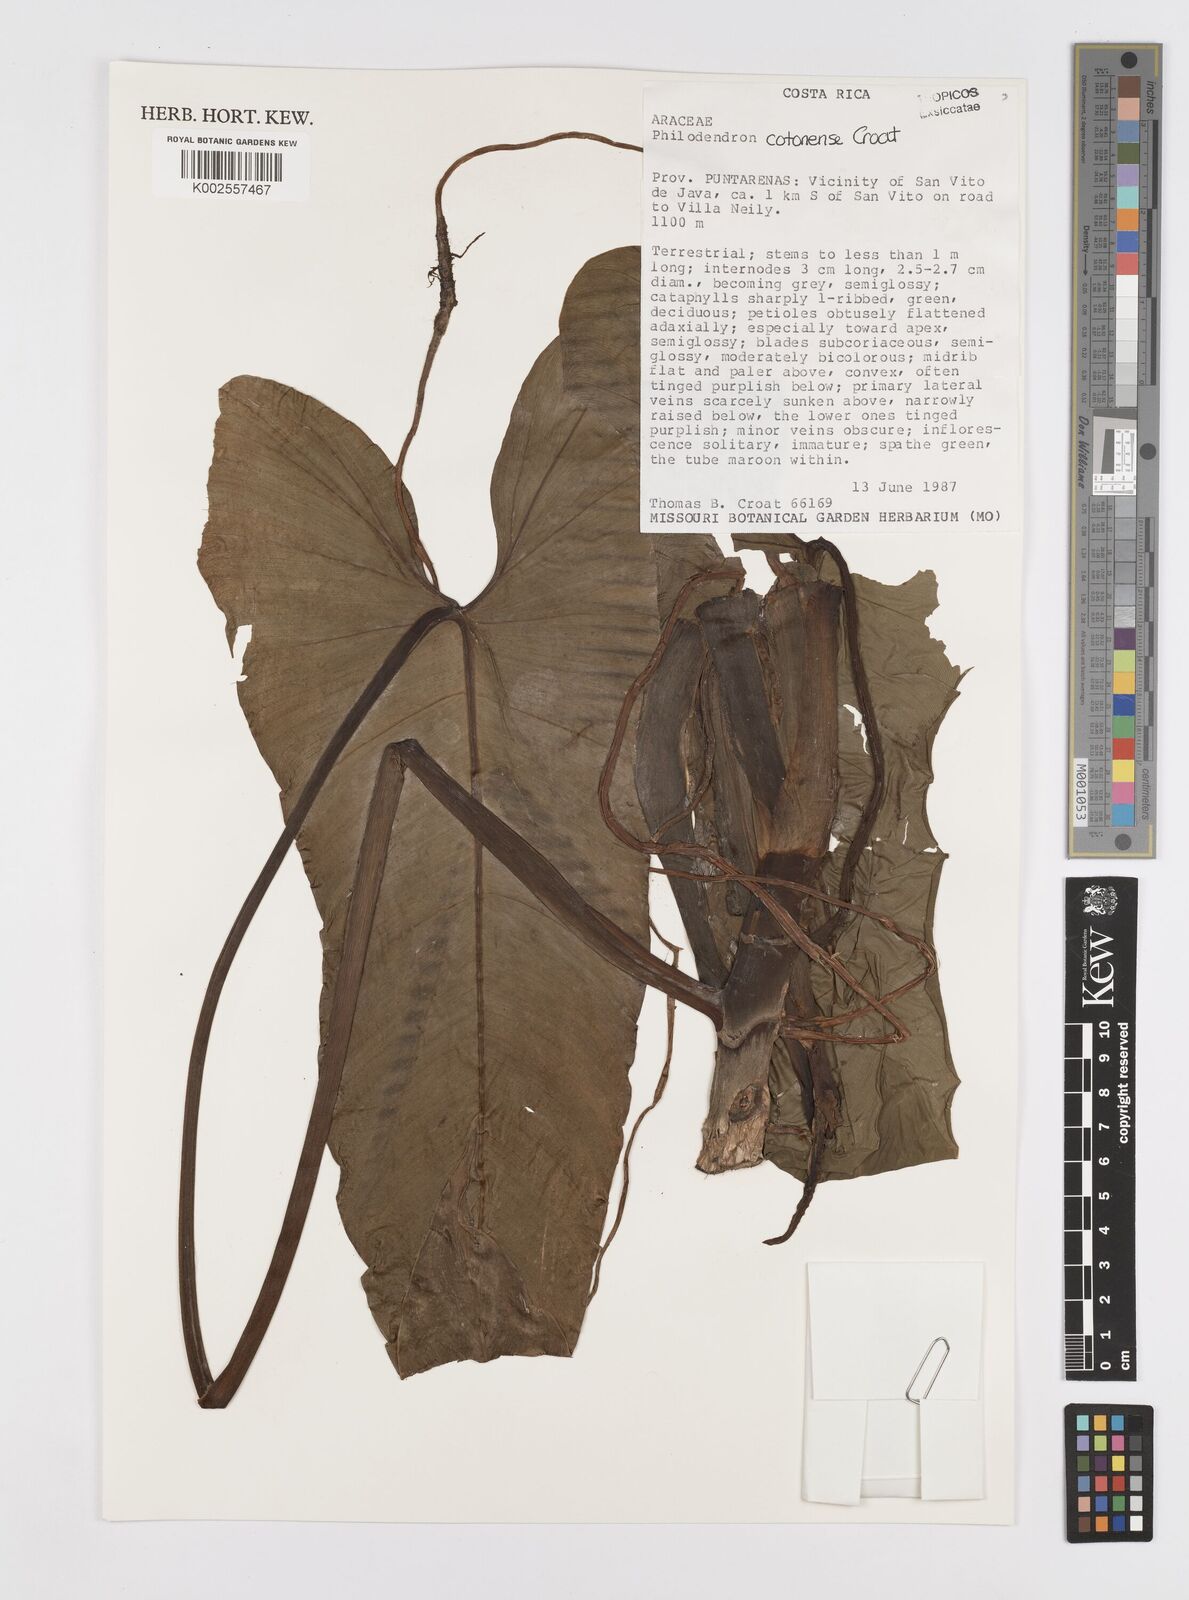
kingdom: Plantae
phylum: Tracheophyta
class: Liliopsida
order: Alismatales
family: Araceae
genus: Philodendron
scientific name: Philodendron cotonense
